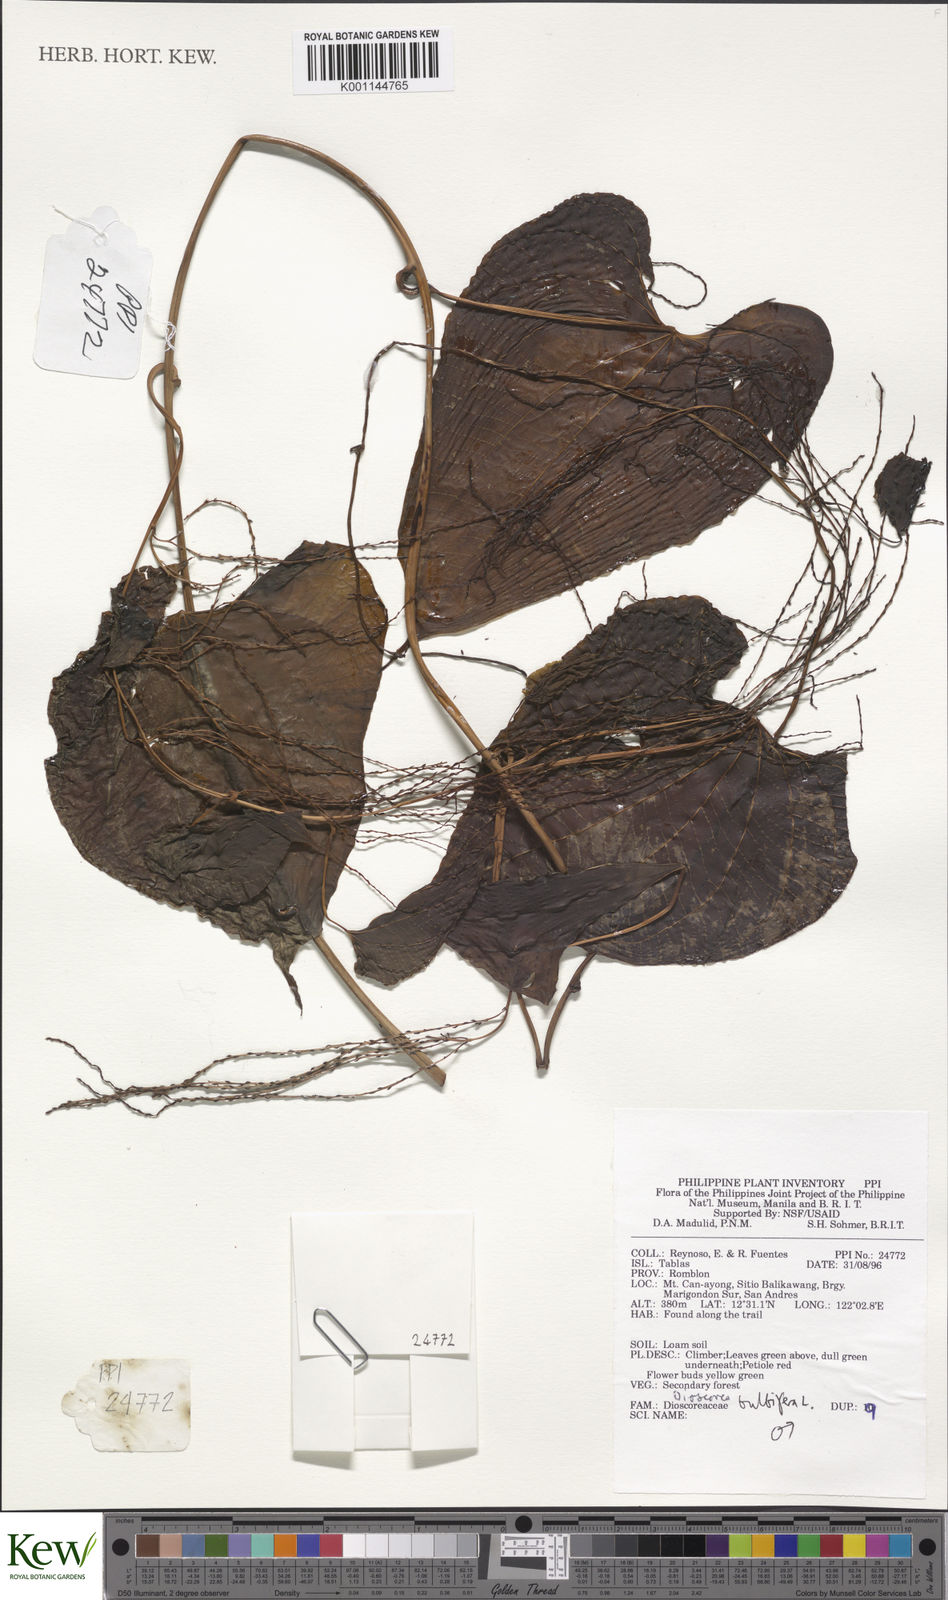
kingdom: Plantae
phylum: Tracheophyta
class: Liliopsida
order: Dioscoreales
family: Dioscoreaceae
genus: Dioscorea
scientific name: Dioscorea bulbifera
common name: Air yam
